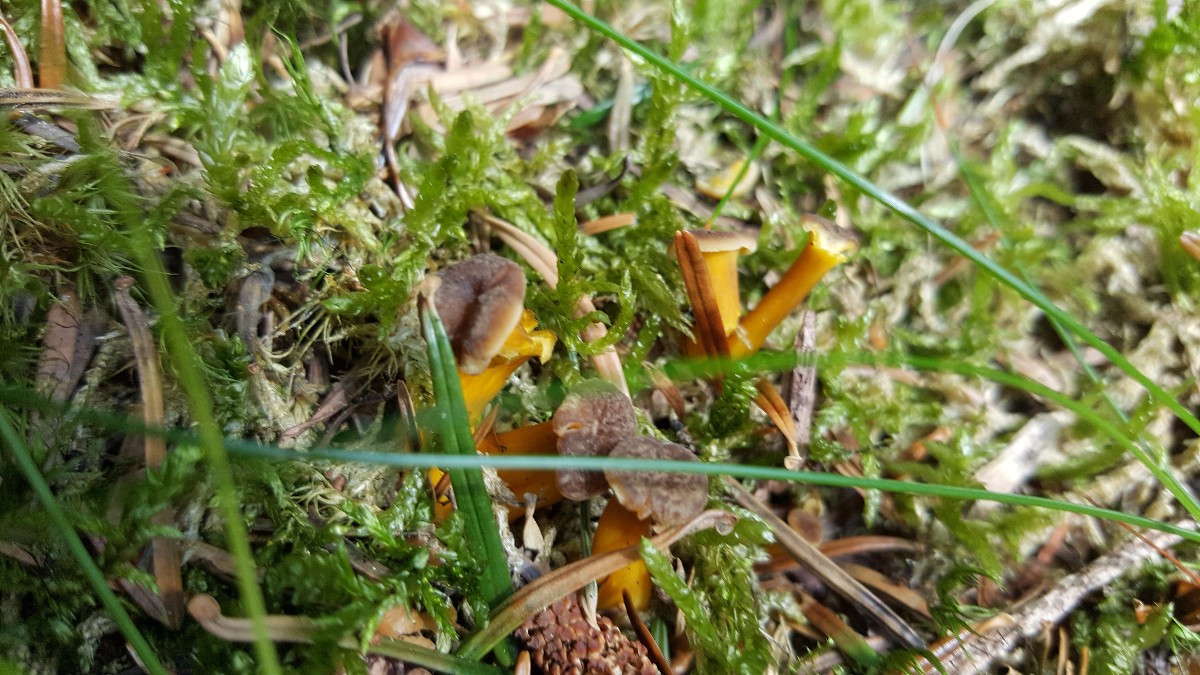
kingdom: Fungi
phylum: Basidiomycota
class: Agaricomycetes
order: Cantharellales
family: Hydnaceae
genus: Craterellus
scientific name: Craterellus tubaeformis
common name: tragt-kantarel
